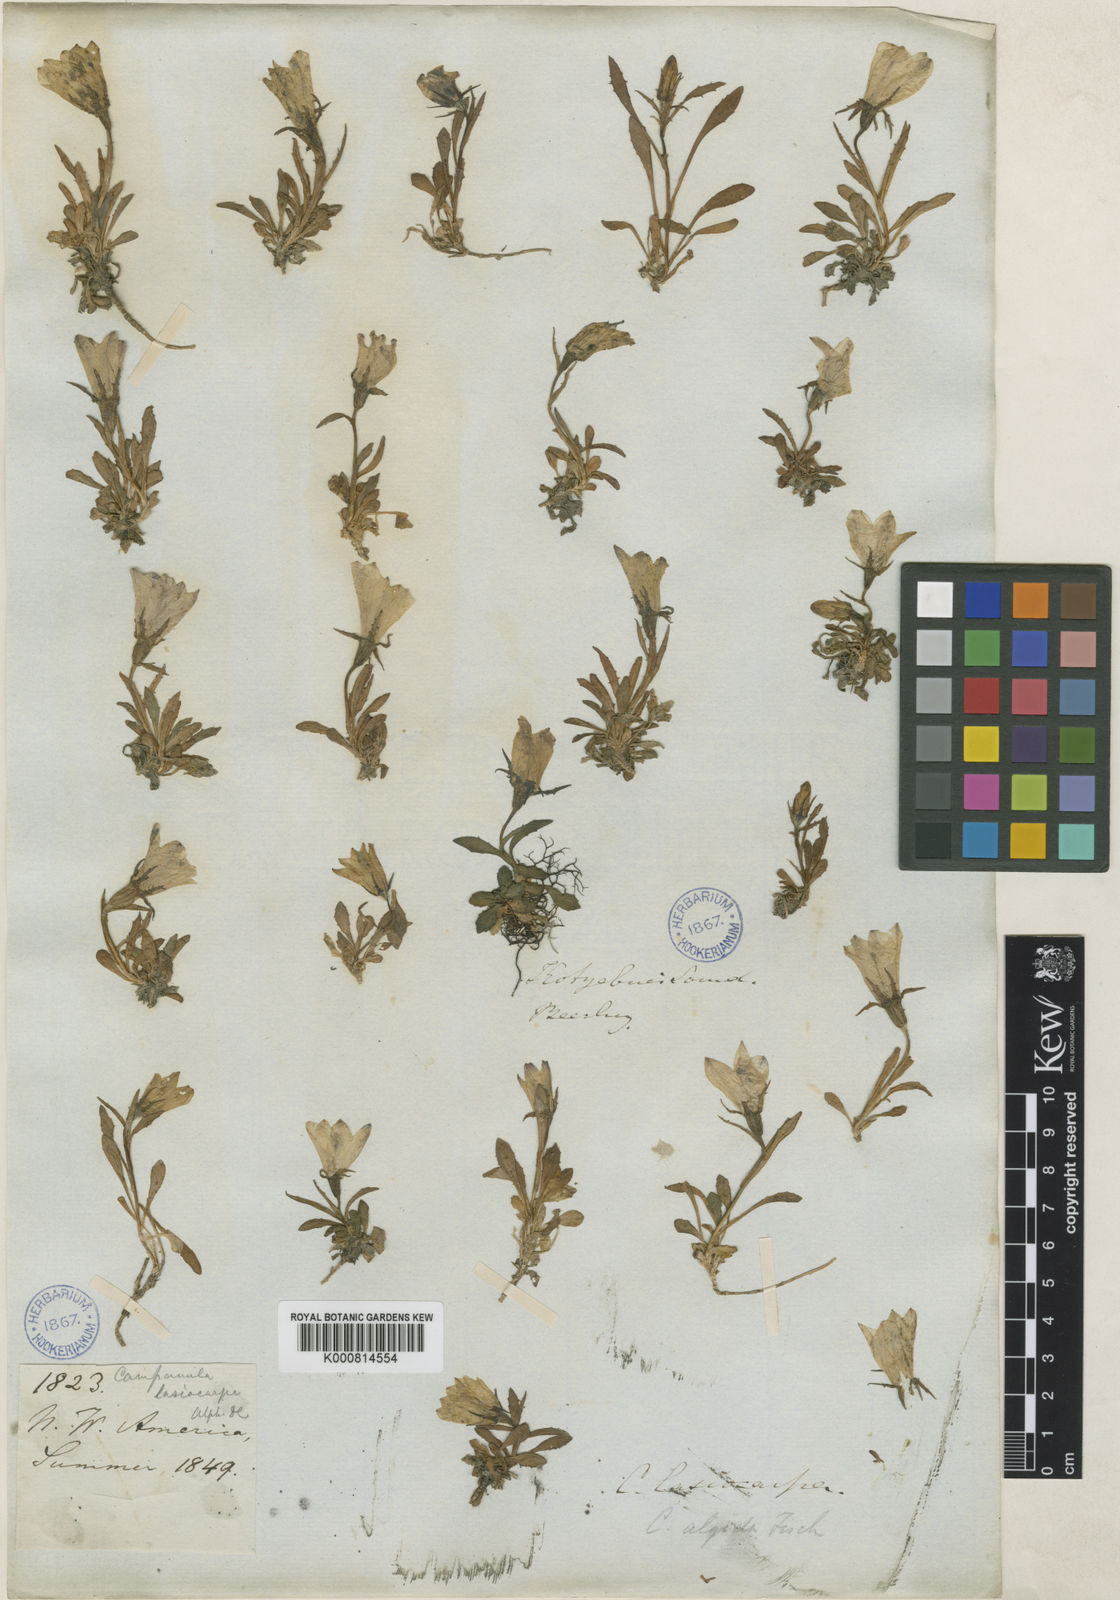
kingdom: Plantae
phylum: Tracheophyta
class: Magnoliopsida
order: Asterales
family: Campanulaceae
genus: Campanula
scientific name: Campanula
